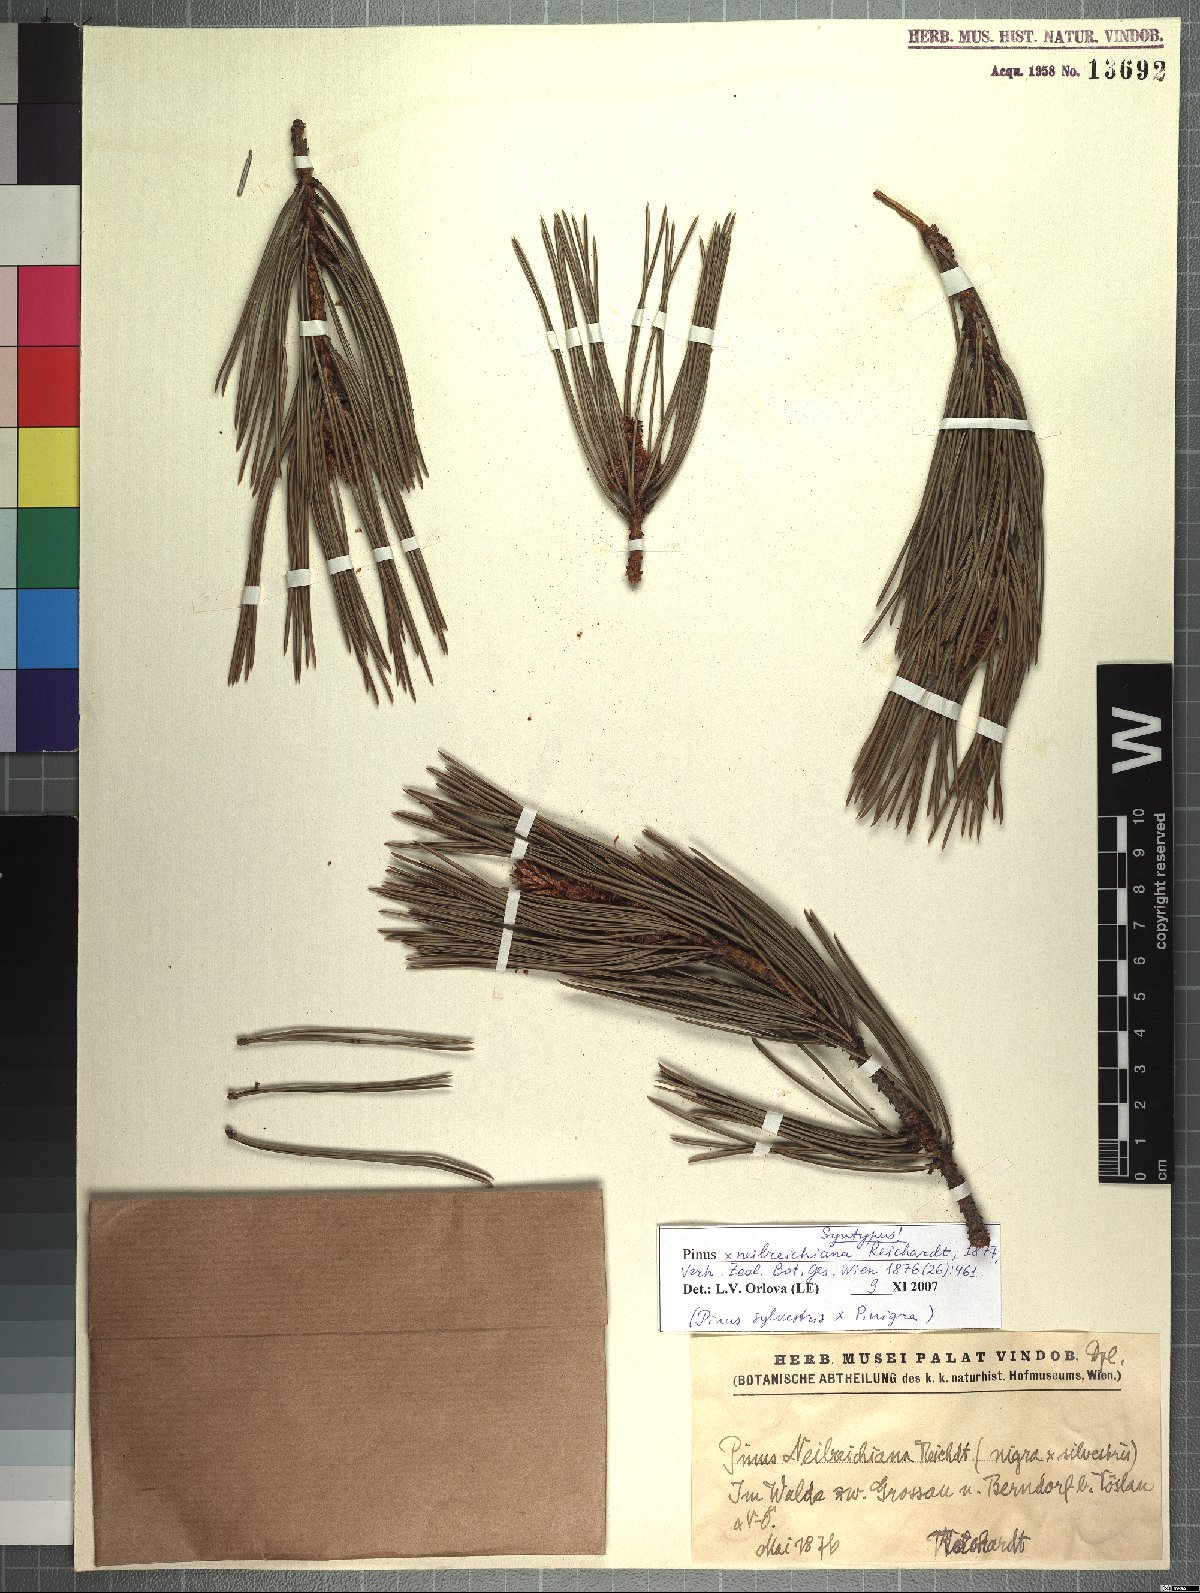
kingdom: Plantae
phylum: Tracheophyta
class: Pinopsida
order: Pinales
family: Pinaceae
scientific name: Pinaceae
